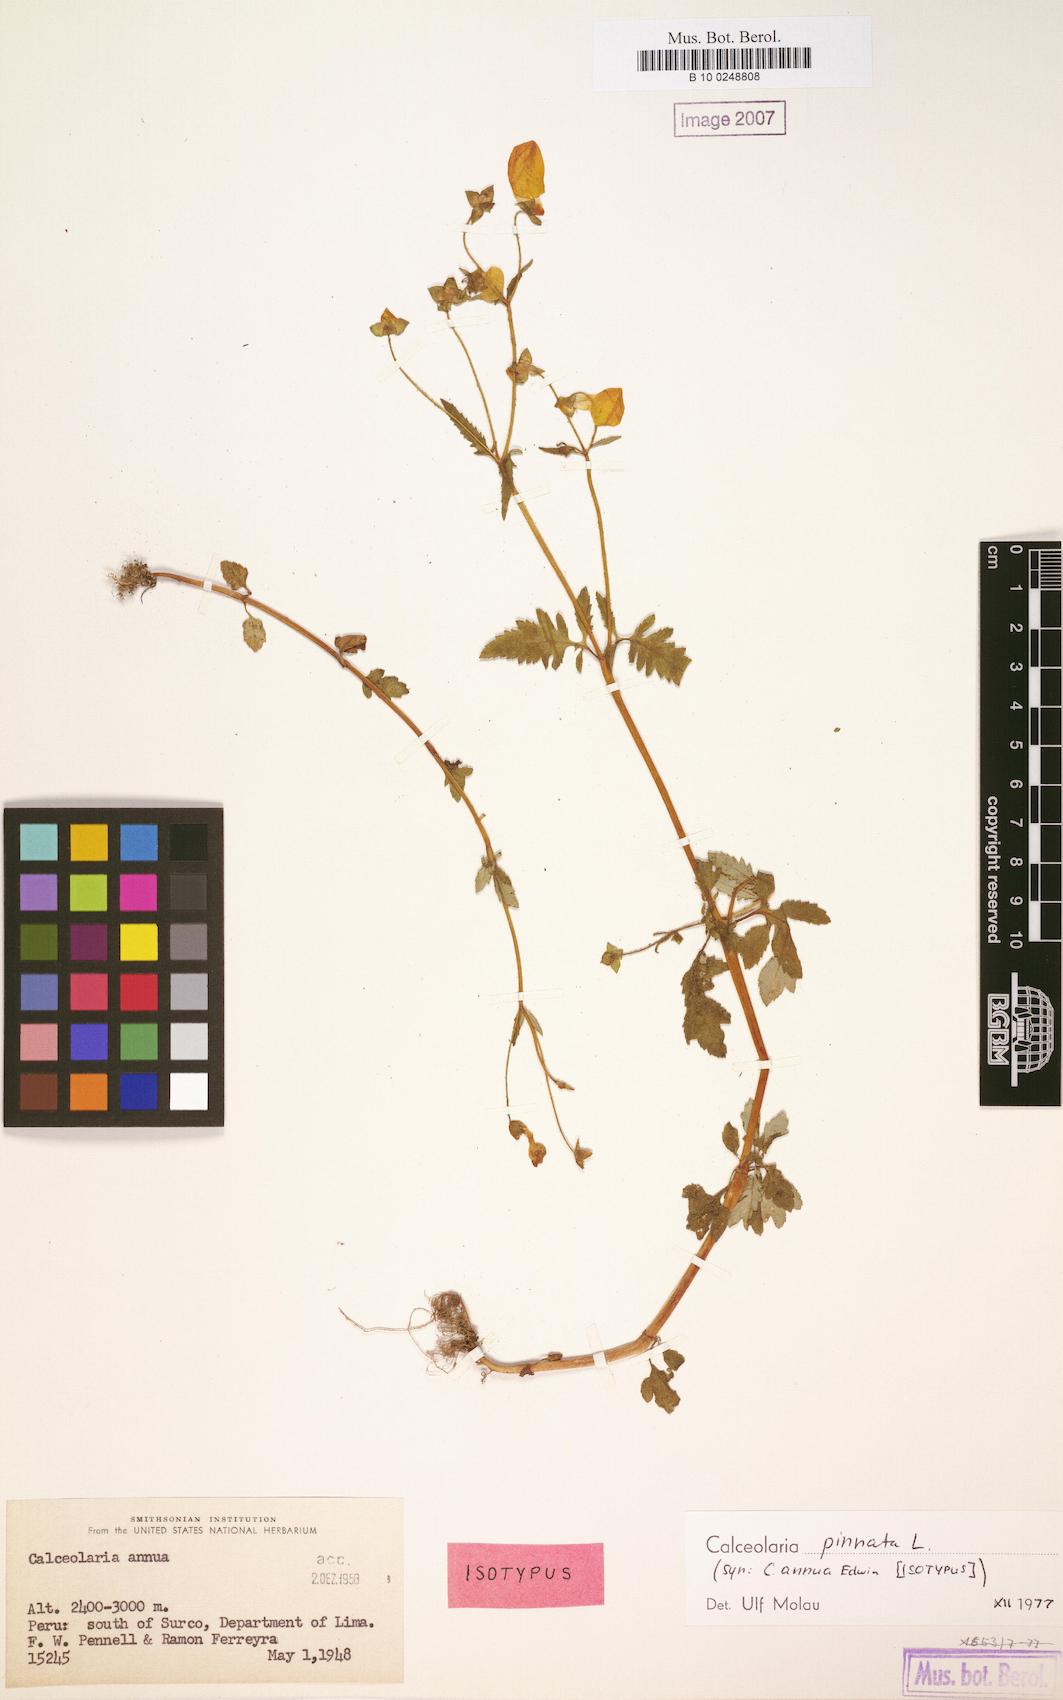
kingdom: Plantae
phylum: Tracheophyta
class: Magnoliopsida
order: Lamiales
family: Calceolariaceae
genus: Calceolaria
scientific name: Calceolaria pinnata
